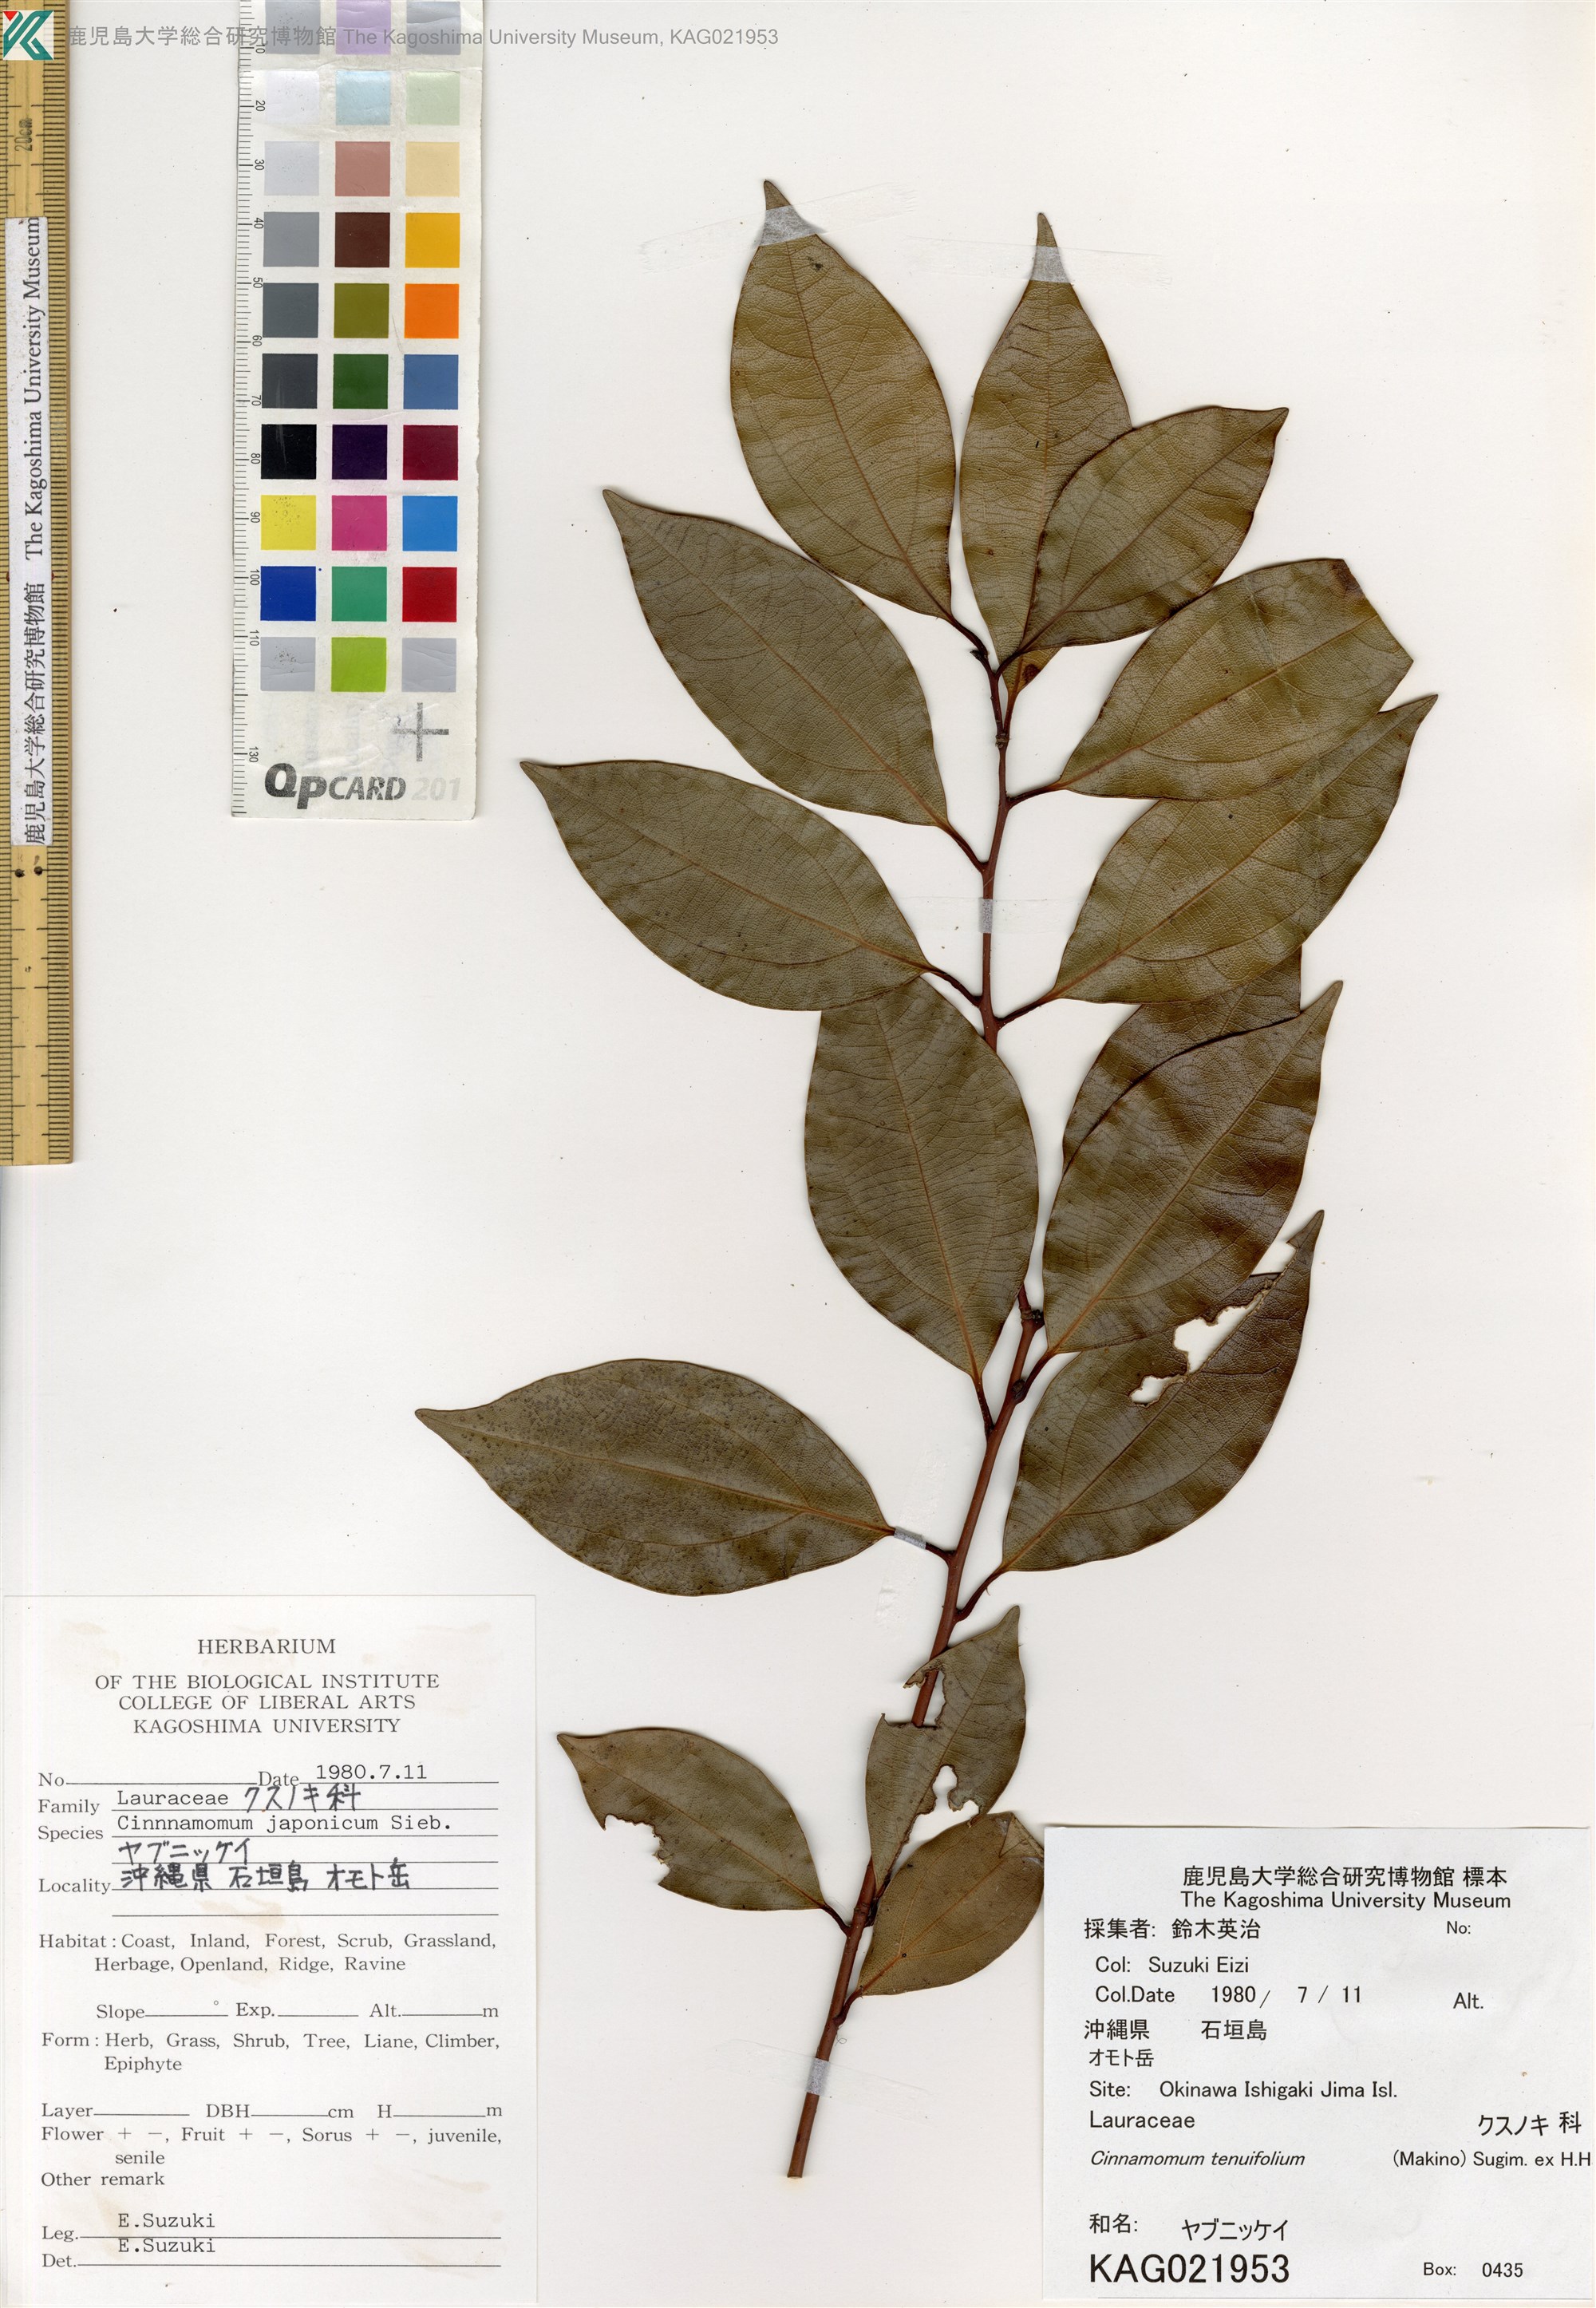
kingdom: Plantae
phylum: Tracheophyta
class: Magnoliopsida
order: Laurales
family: Lauraceae
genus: Cinnamomum
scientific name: Cinnamomum chekiangense
